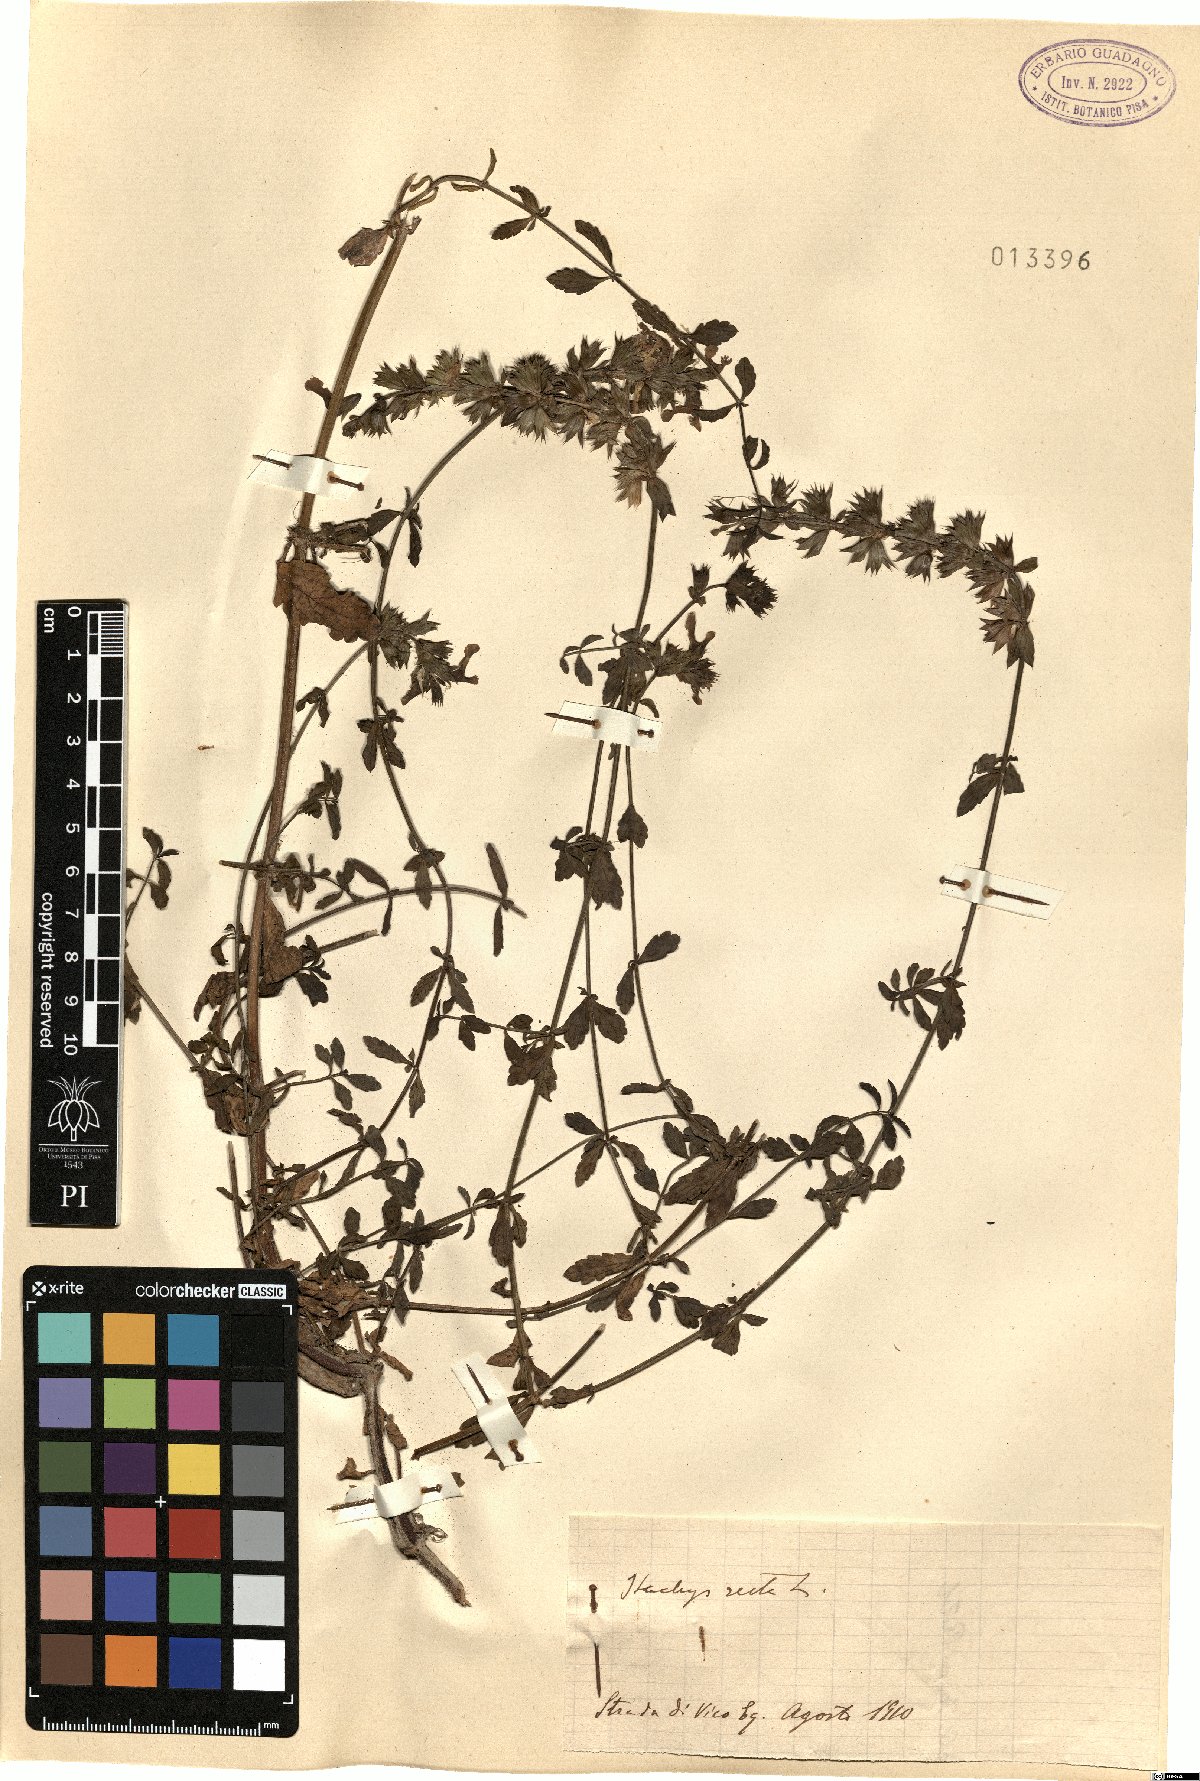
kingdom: Plantae
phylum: Tracheophyta
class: Magnoliopsida
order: Lamiales
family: Lamiaceae
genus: Stachys
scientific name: Stachys recta
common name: Perennial yellow-woundwort
